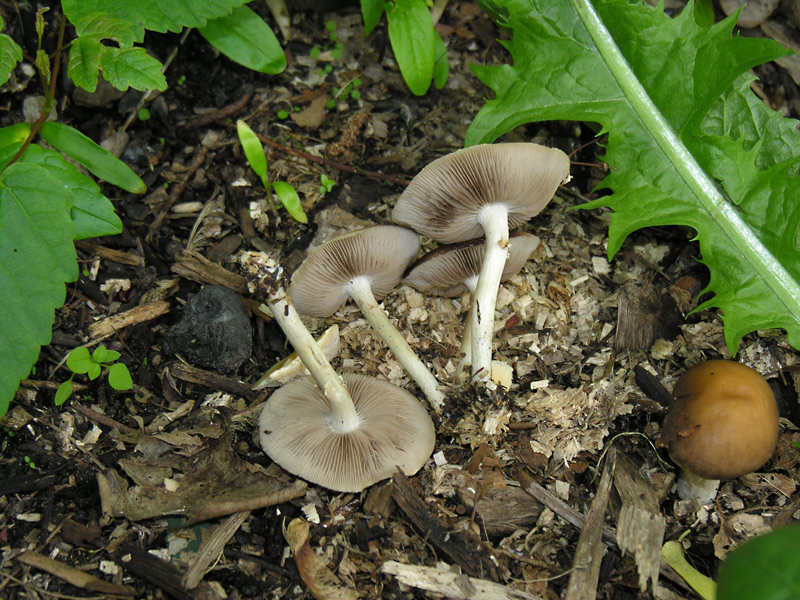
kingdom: Fungi
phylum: Basidiomycota
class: Agaricomycetes
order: Agaricales
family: Strophariaceae
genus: Agrocybe
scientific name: Agrocybe praecox
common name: tidlig agerhat
